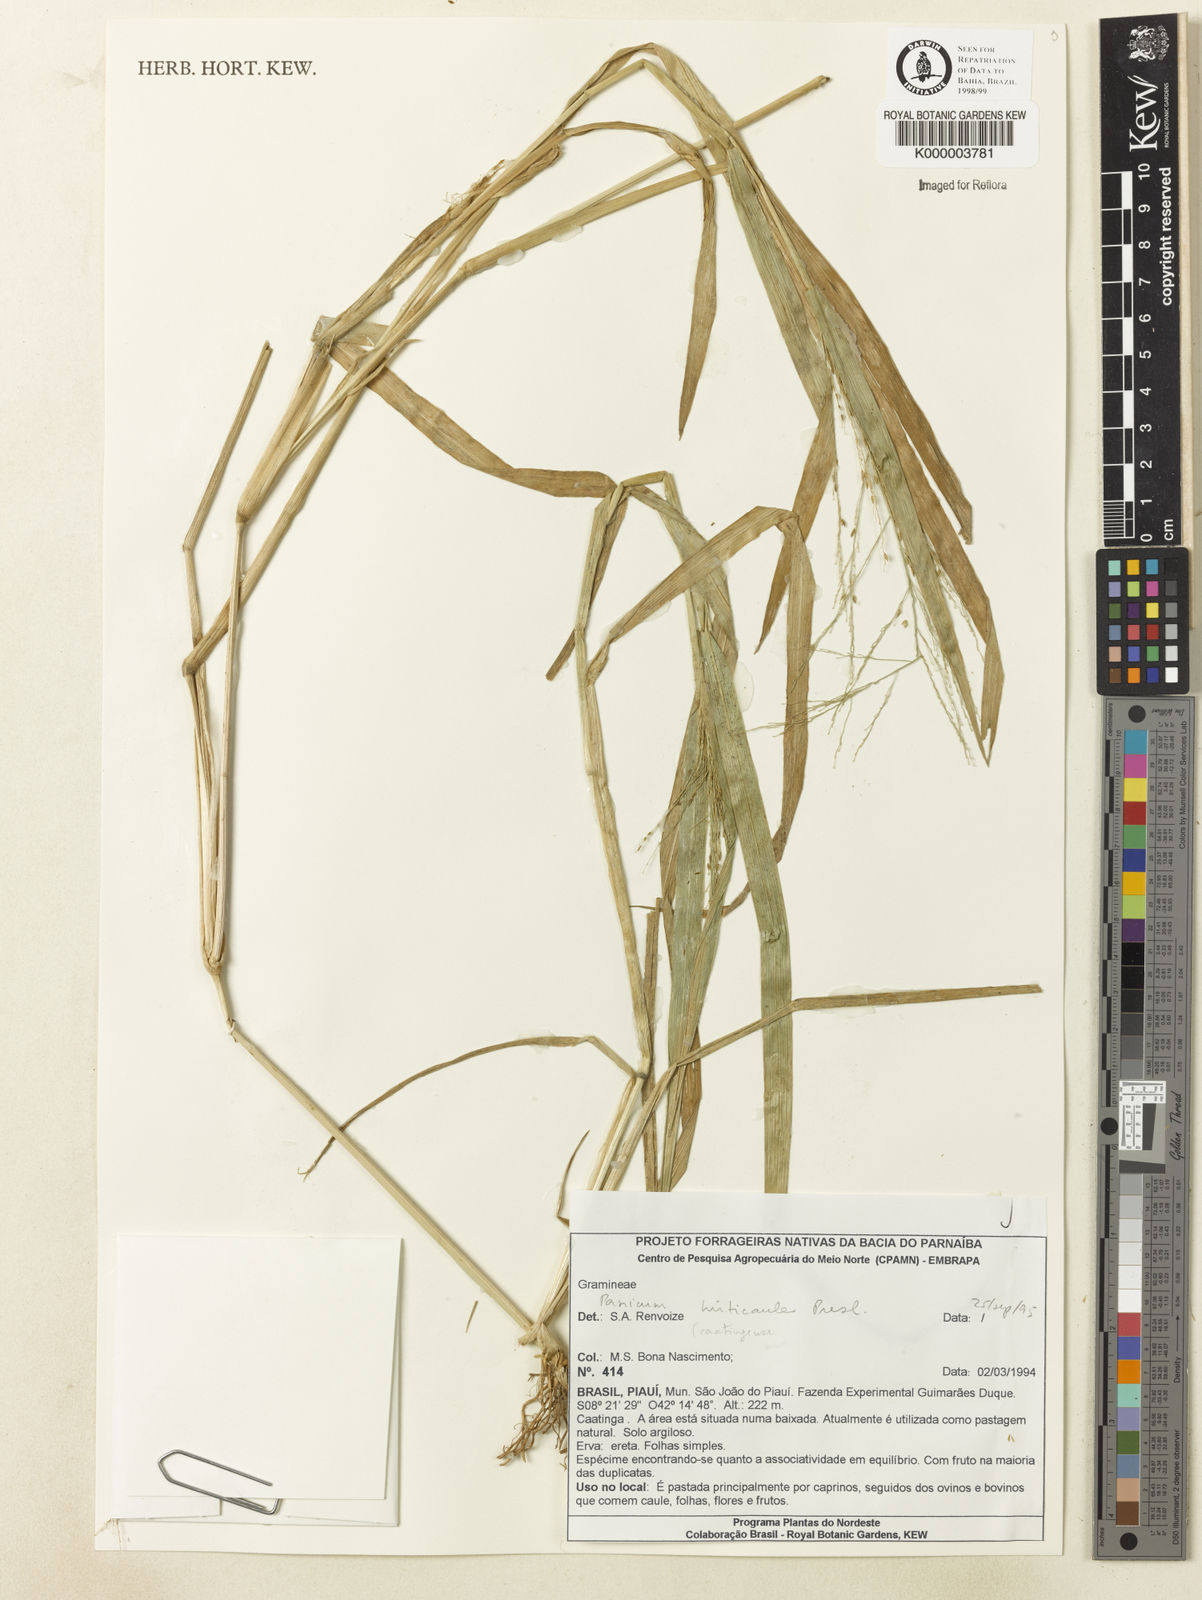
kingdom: Plantae
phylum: Tracheophyta
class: Liliopsida
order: Poales
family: Poaceae
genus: Panicum
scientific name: Panicum hirticaule
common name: Rough-stalk witchgrass
